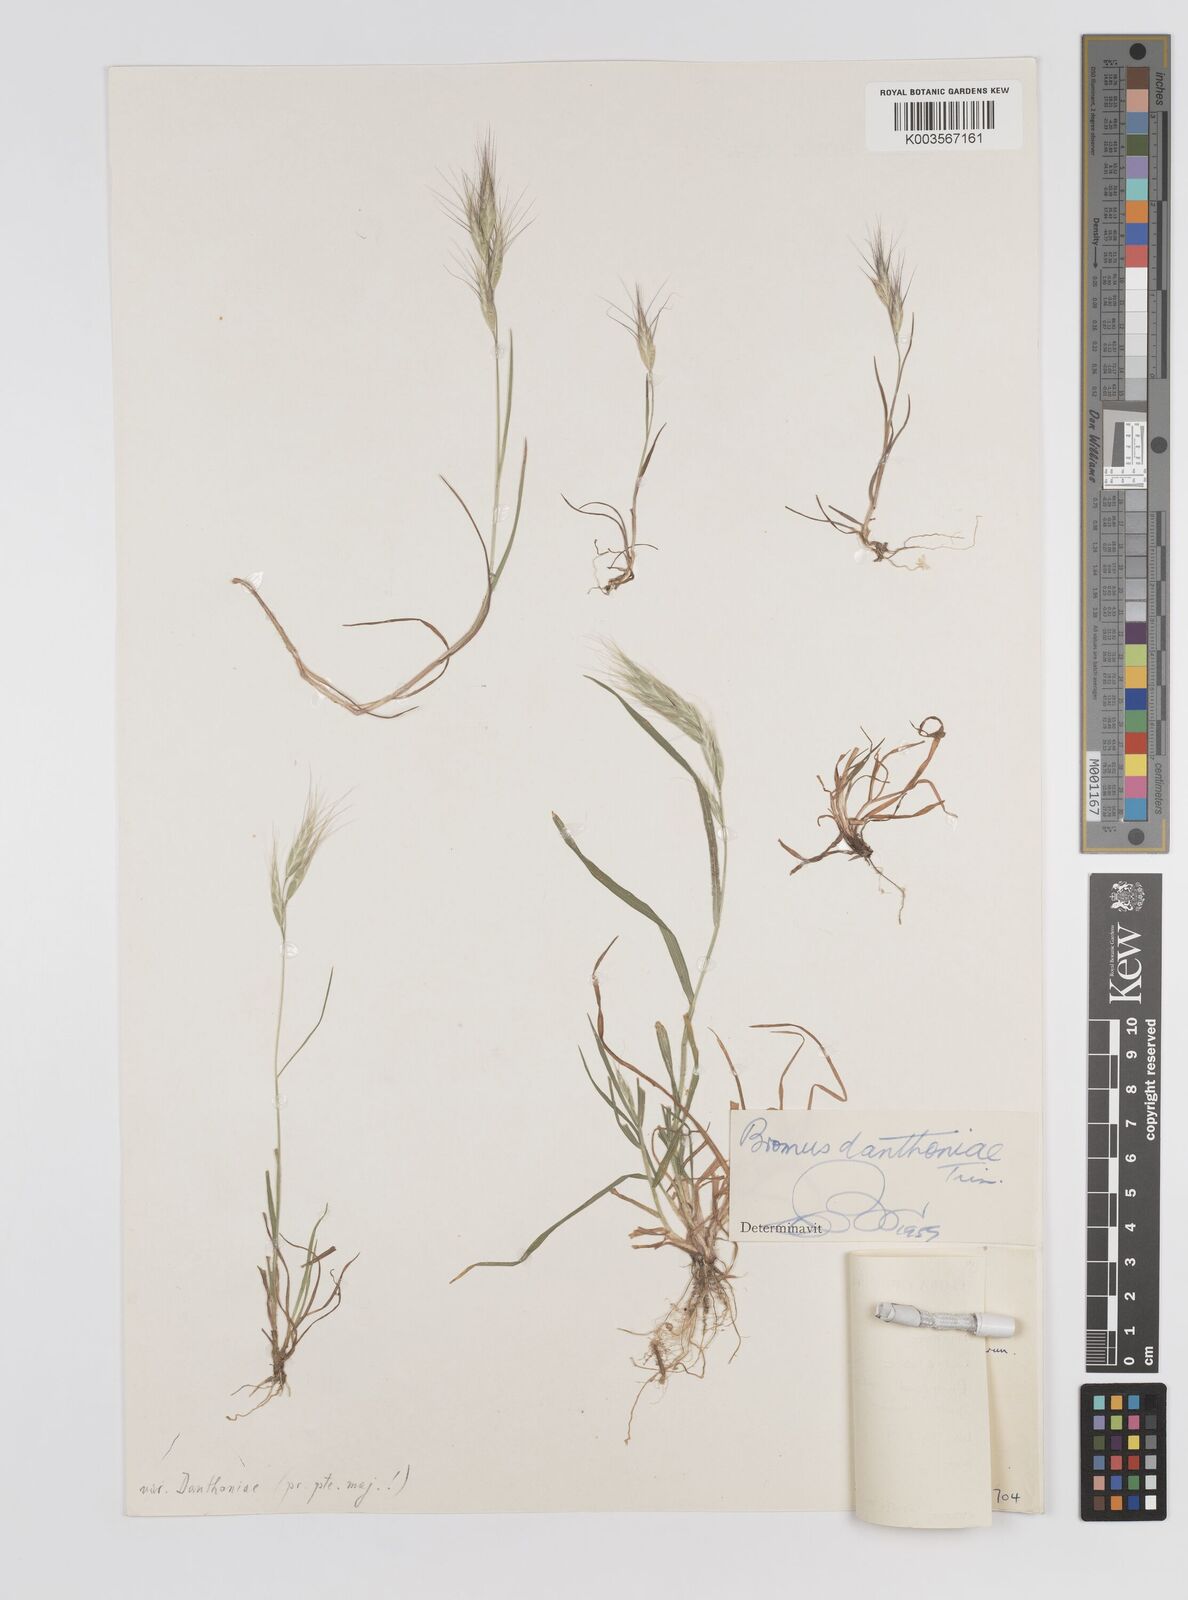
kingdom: Plantae
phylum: Tracheophyta
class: Liliopsida
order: Poales
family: Poaceae
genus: Bromus
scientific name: Bromus danthoniae
